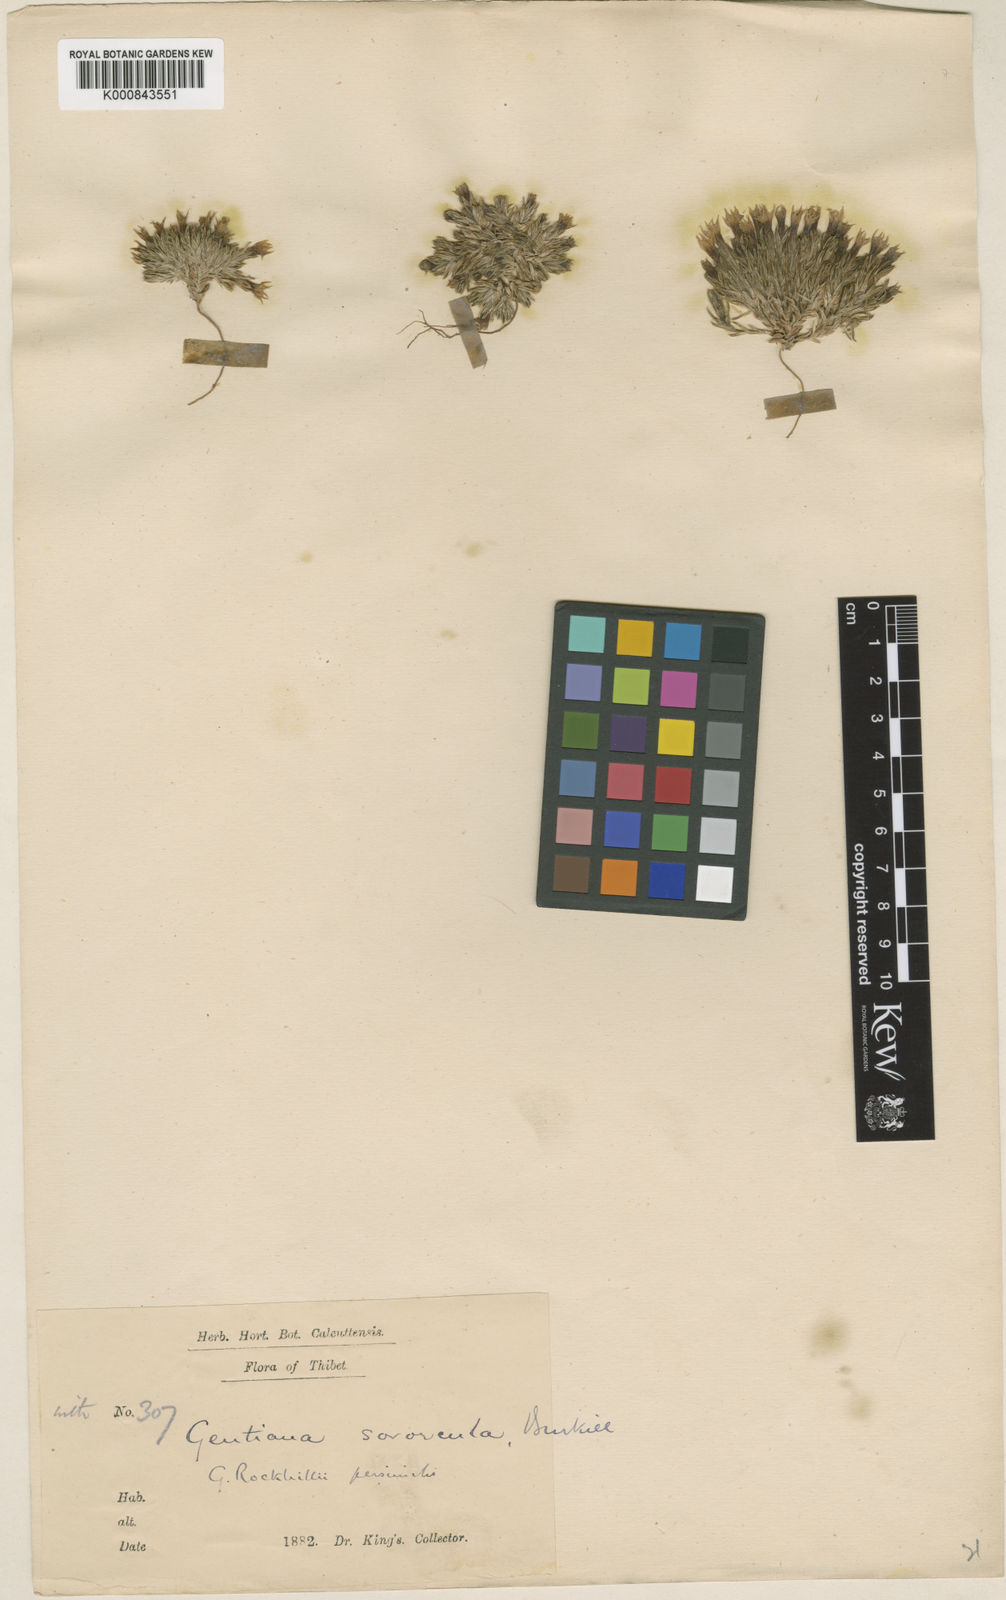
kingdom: Plantae
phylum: Tracheophyta
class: Magnoliopsida
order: Gentianales
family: Gentianaceae
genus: Gentiana
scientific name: Gentiana micans
